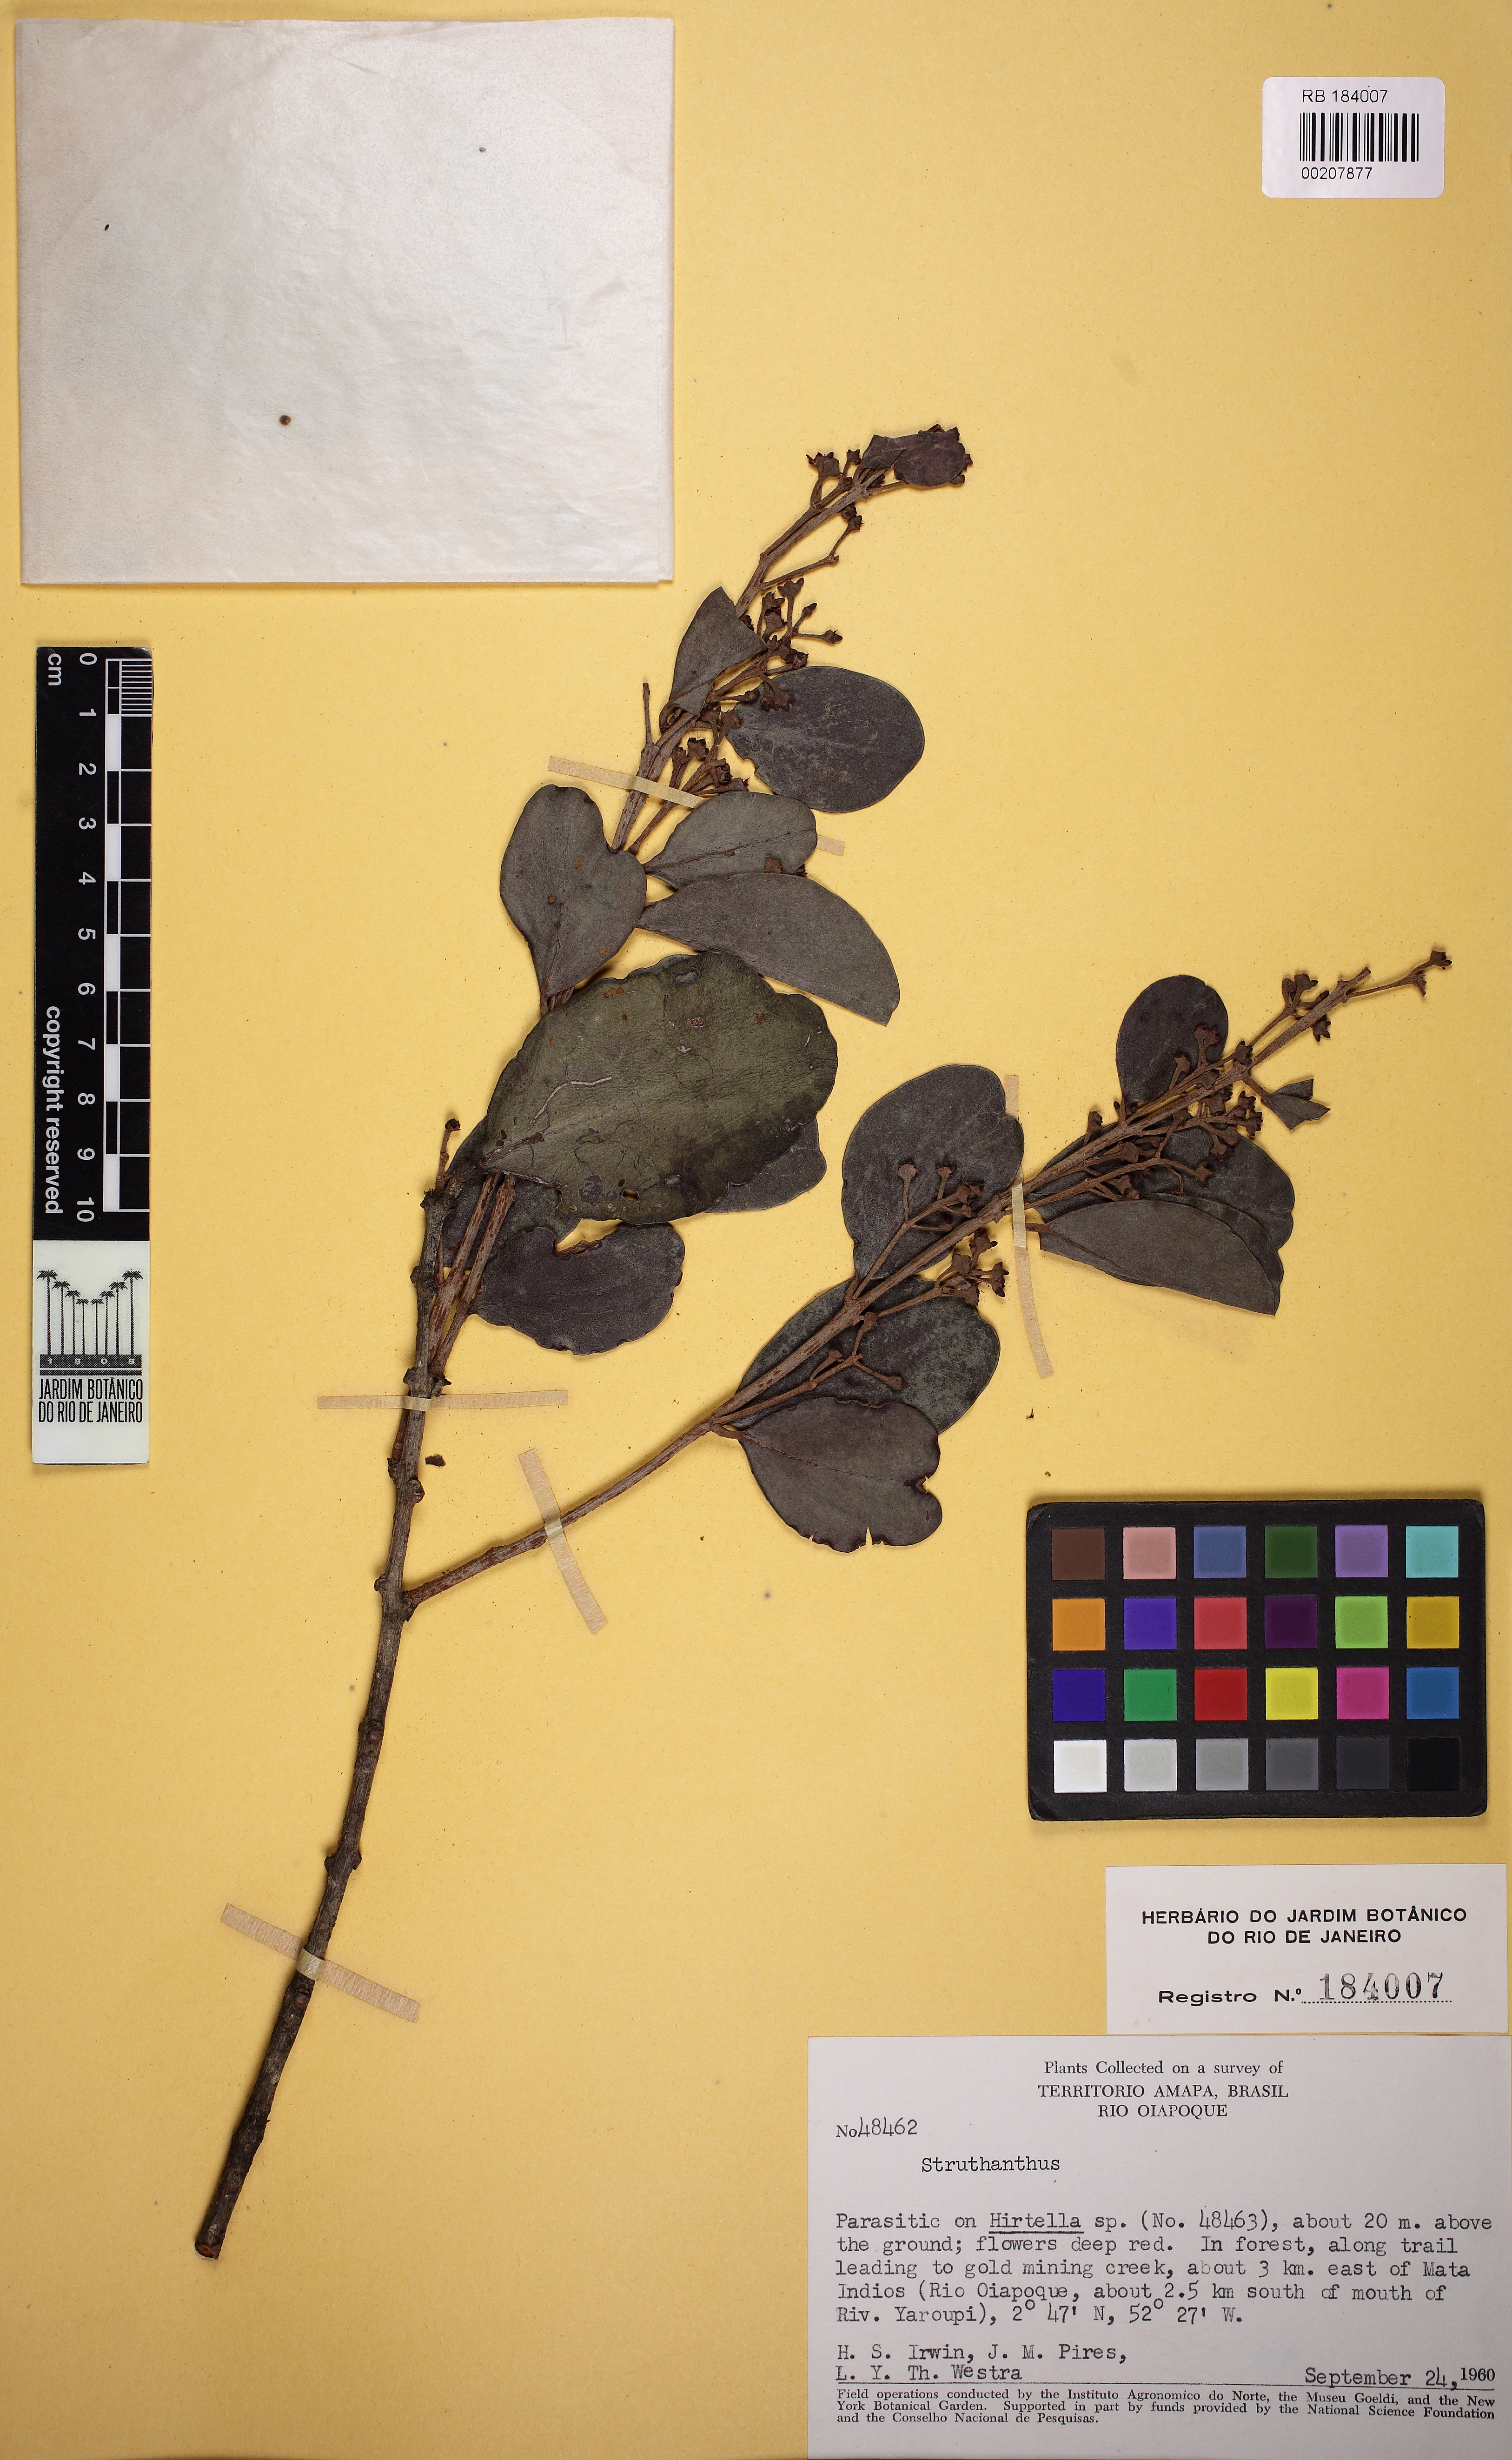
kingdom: Plantae
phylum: Tracheophyta
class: Magnoliopsida
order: Santalales
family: Loranthaceae
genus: Struthanthus
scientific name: Struthanthus
